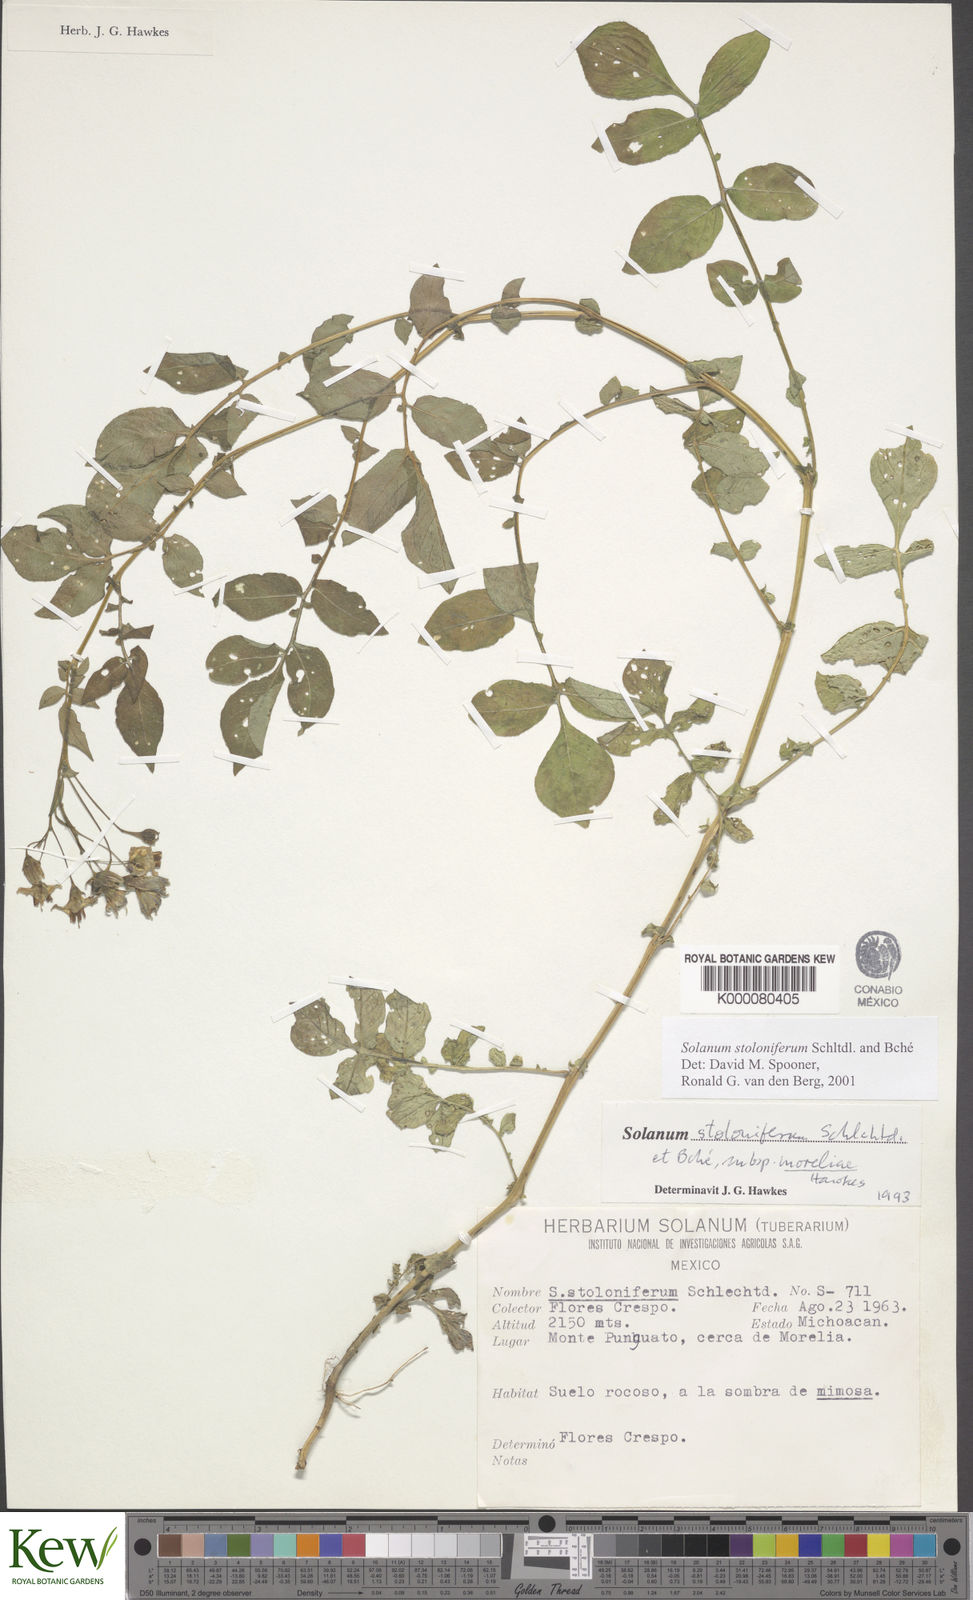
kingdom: Plantae
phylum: Tracheophyta
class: Magnoliopsida
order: Solanales
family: Solanaceae
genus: Solanum
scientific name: Solanum stoloniferum
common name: Fendler's nighshade
